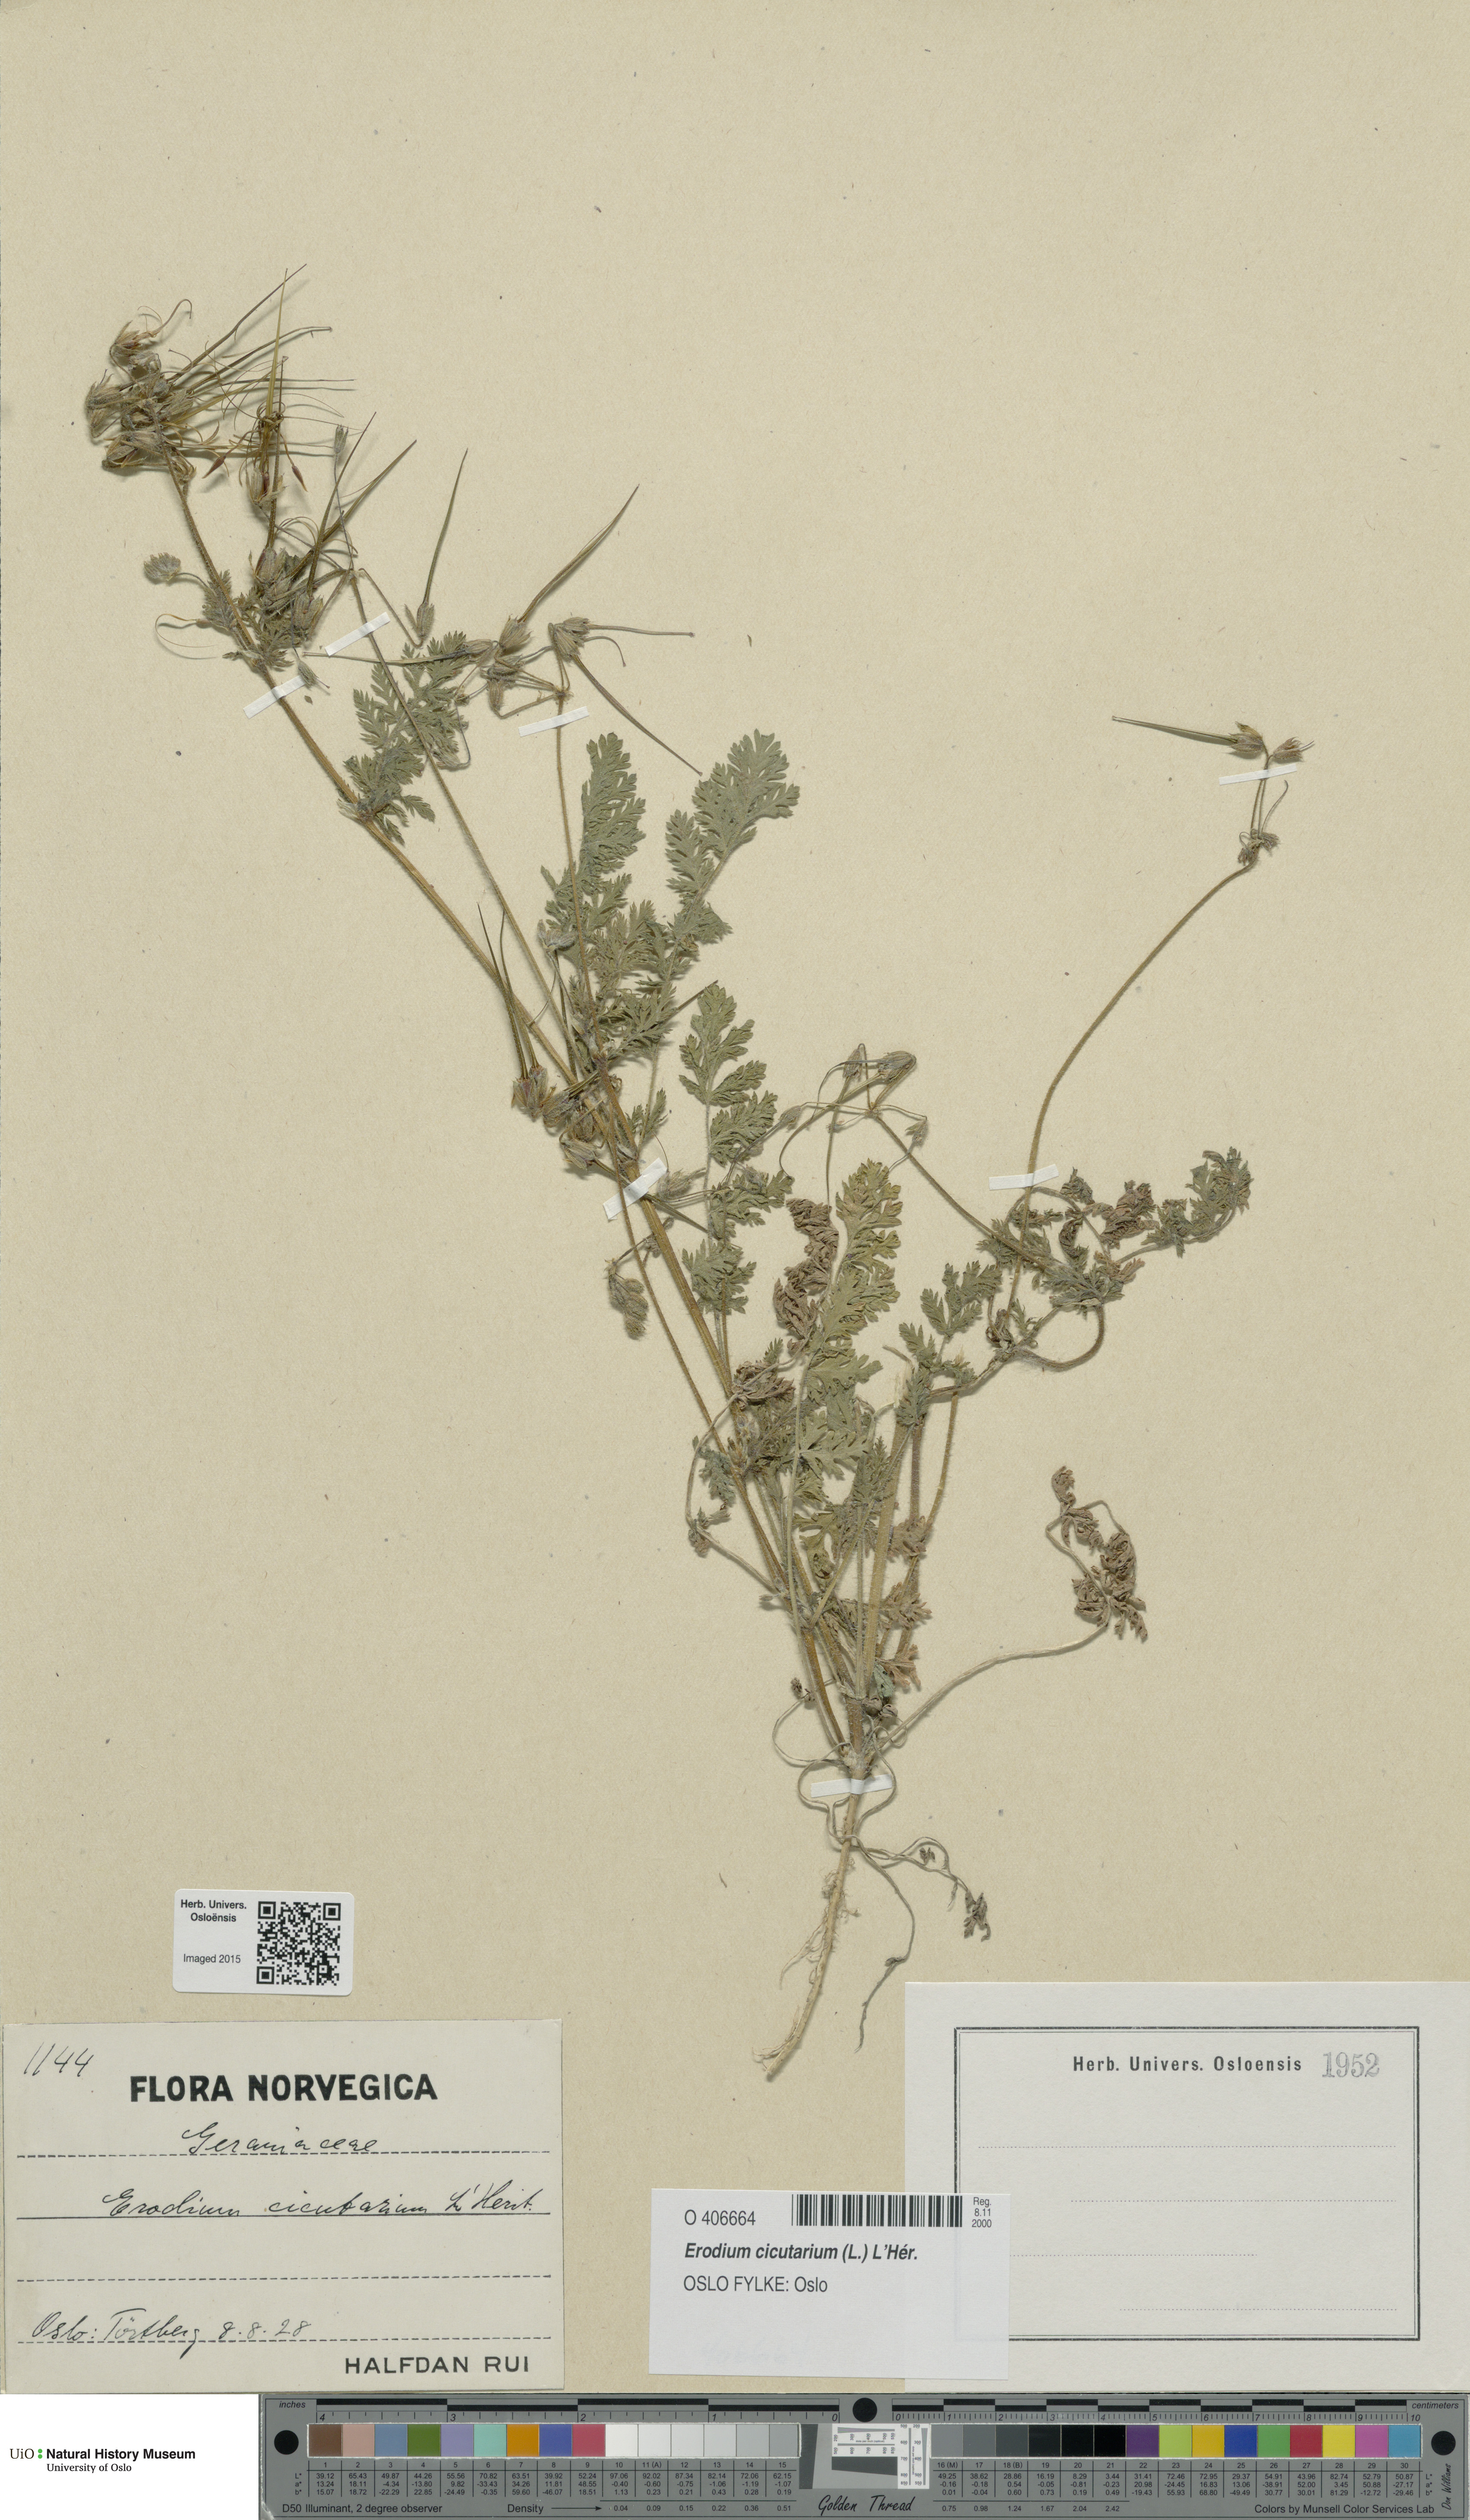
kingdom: Plantae
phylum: Tracheophyta
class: Magnoliopsida
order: Geraniales
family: Geraniaceae
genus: Erodium
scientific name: Erodium cicutarium
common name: Common stork's-bill
